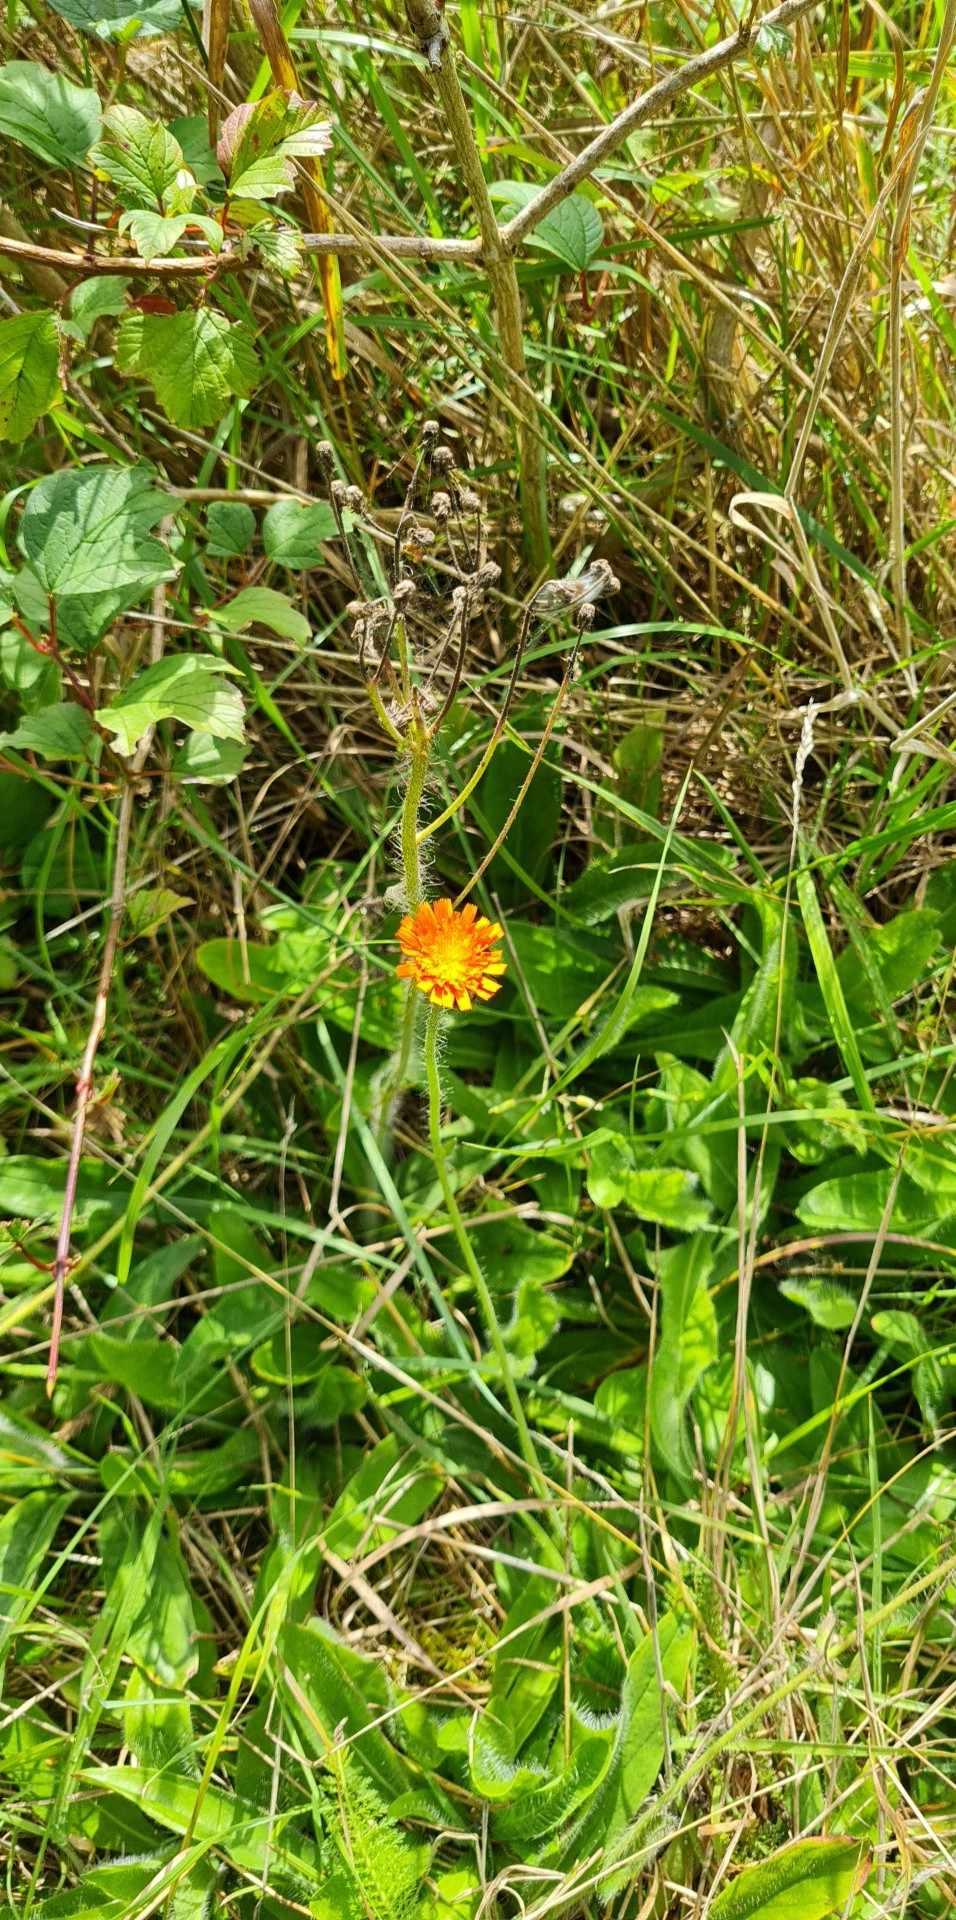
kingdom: Plantae
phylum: Tracheophyta
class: Magnoliopsida
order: Asterales
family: Asteraceae
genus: Pilosella
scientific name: Pilosella aurantiaca
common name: Pomerans-høgeurt
